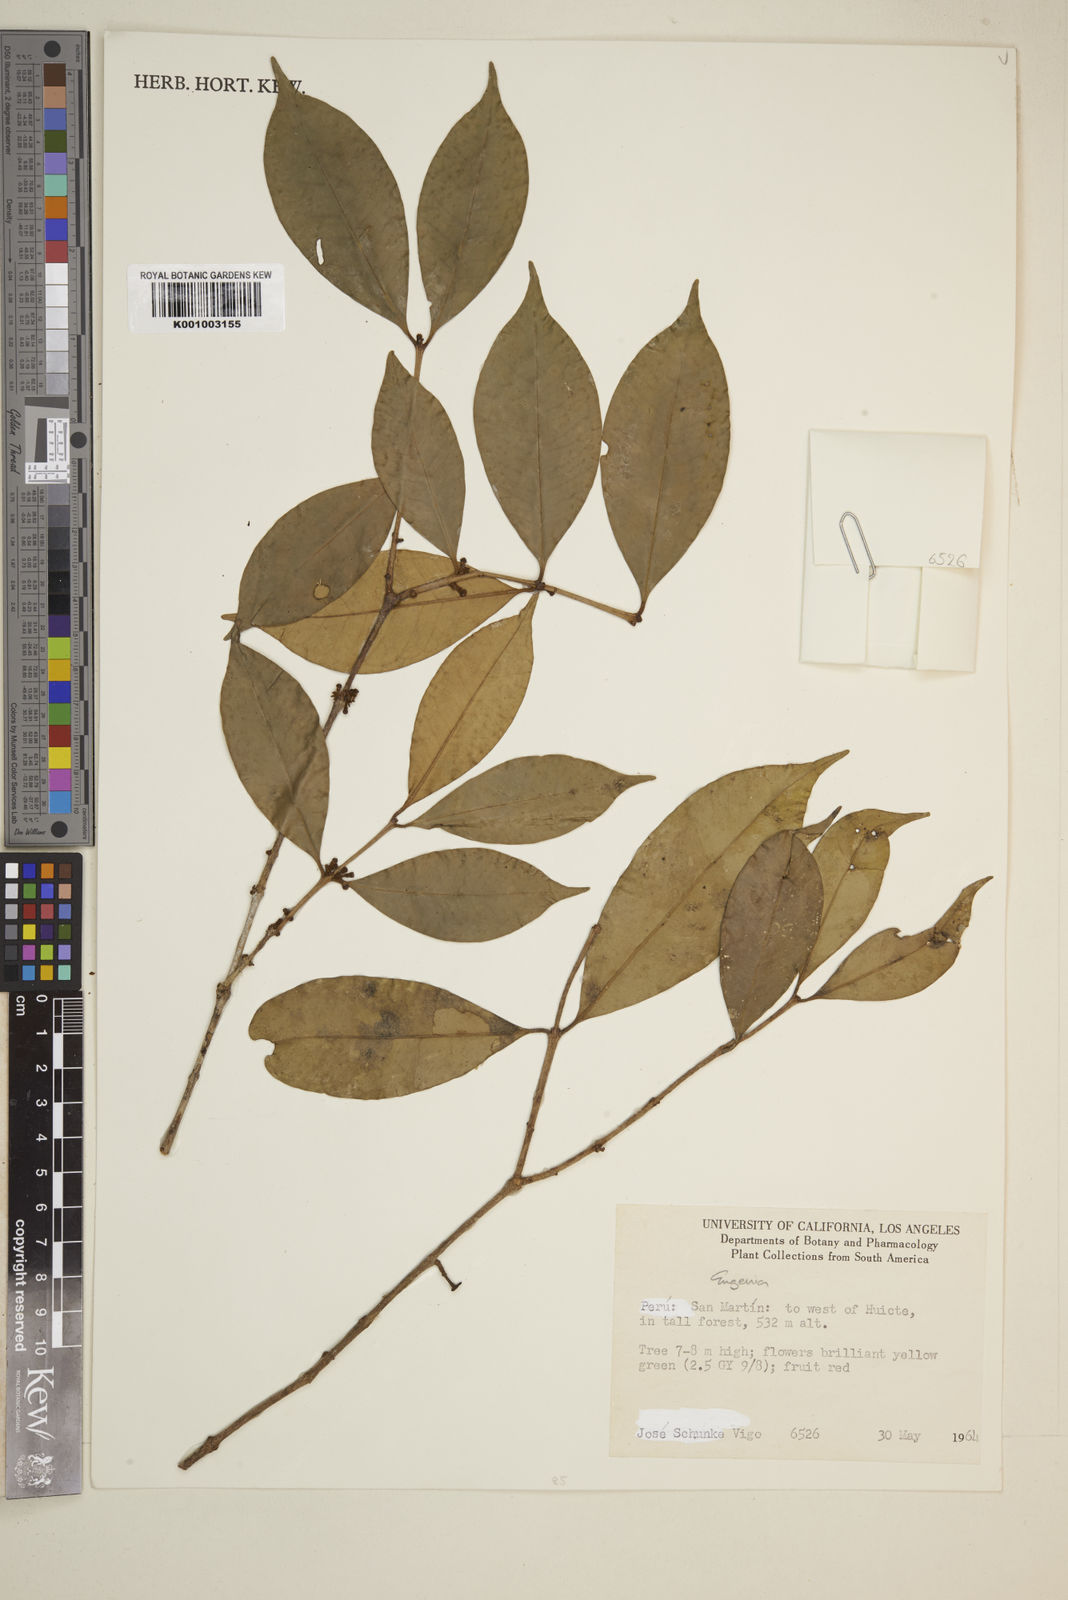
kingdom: Plantae
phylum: Tracheophyta
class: Magnoliopsida
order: Myrtales
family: Myrtaceae
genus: Eugenia
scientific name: Eugenia
